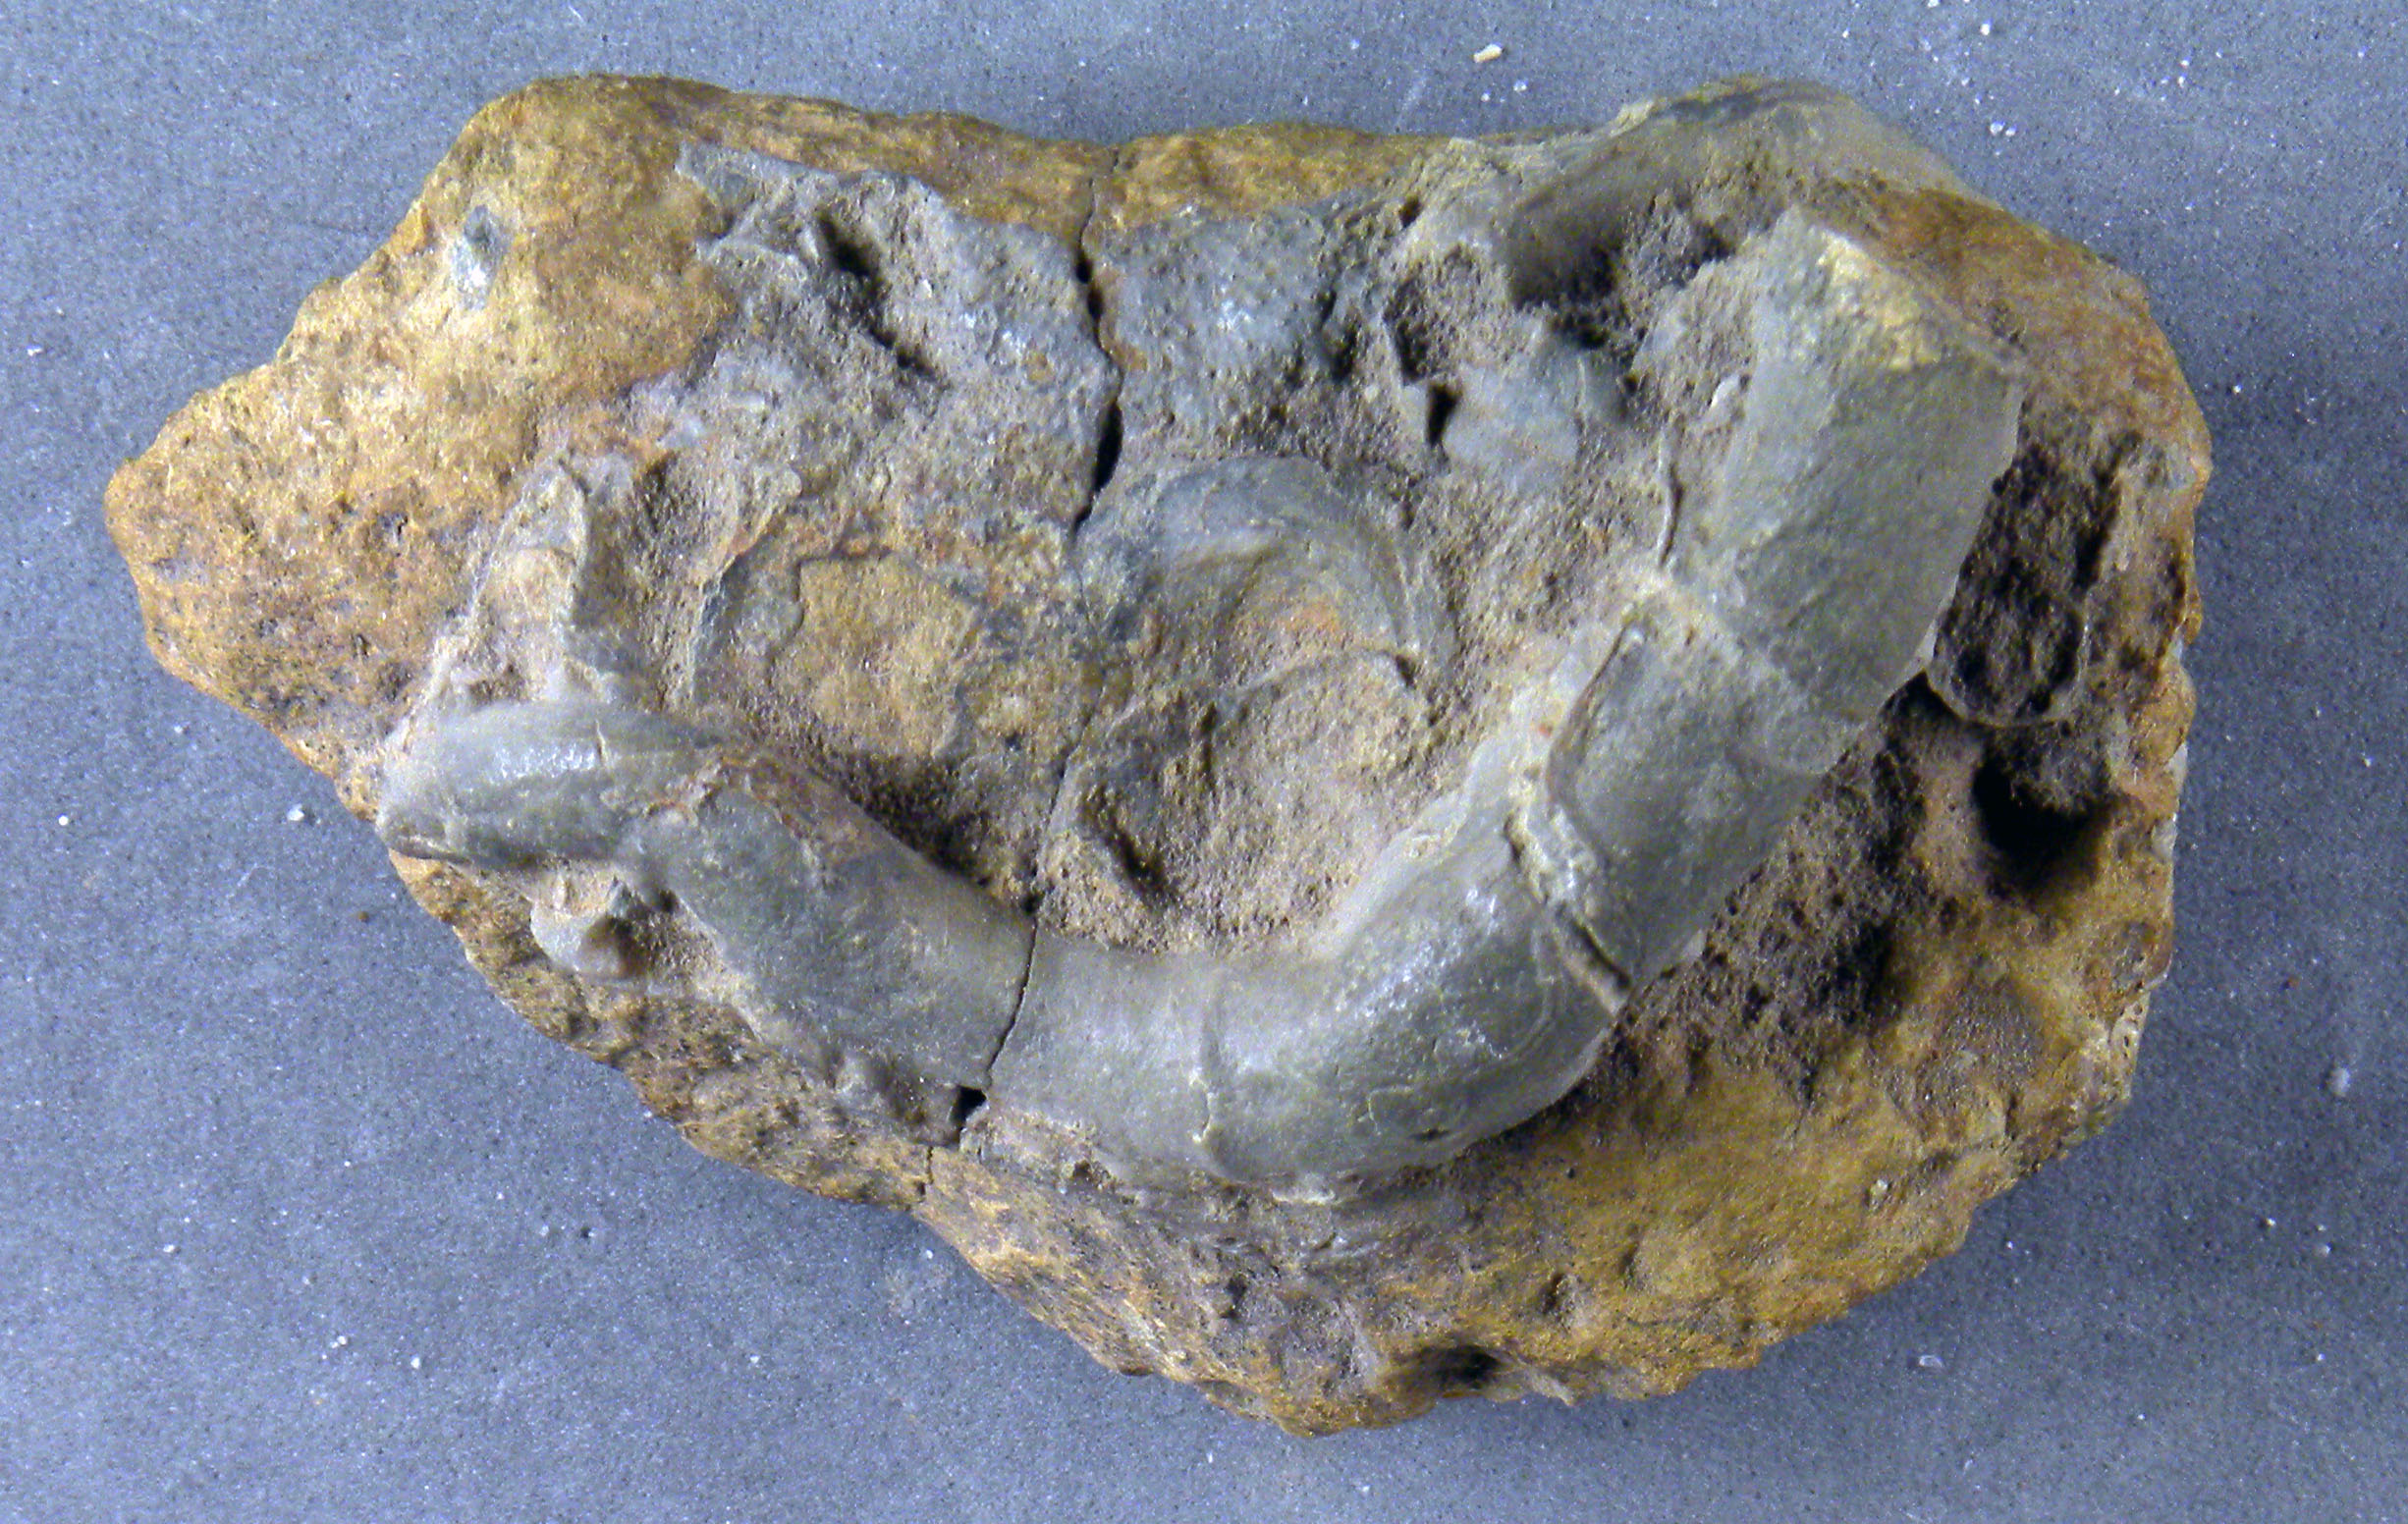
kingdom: Animalia
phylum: Annelida
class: Polychaeta
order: Sabellida
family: Serpulidae
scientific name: Serpulidae
